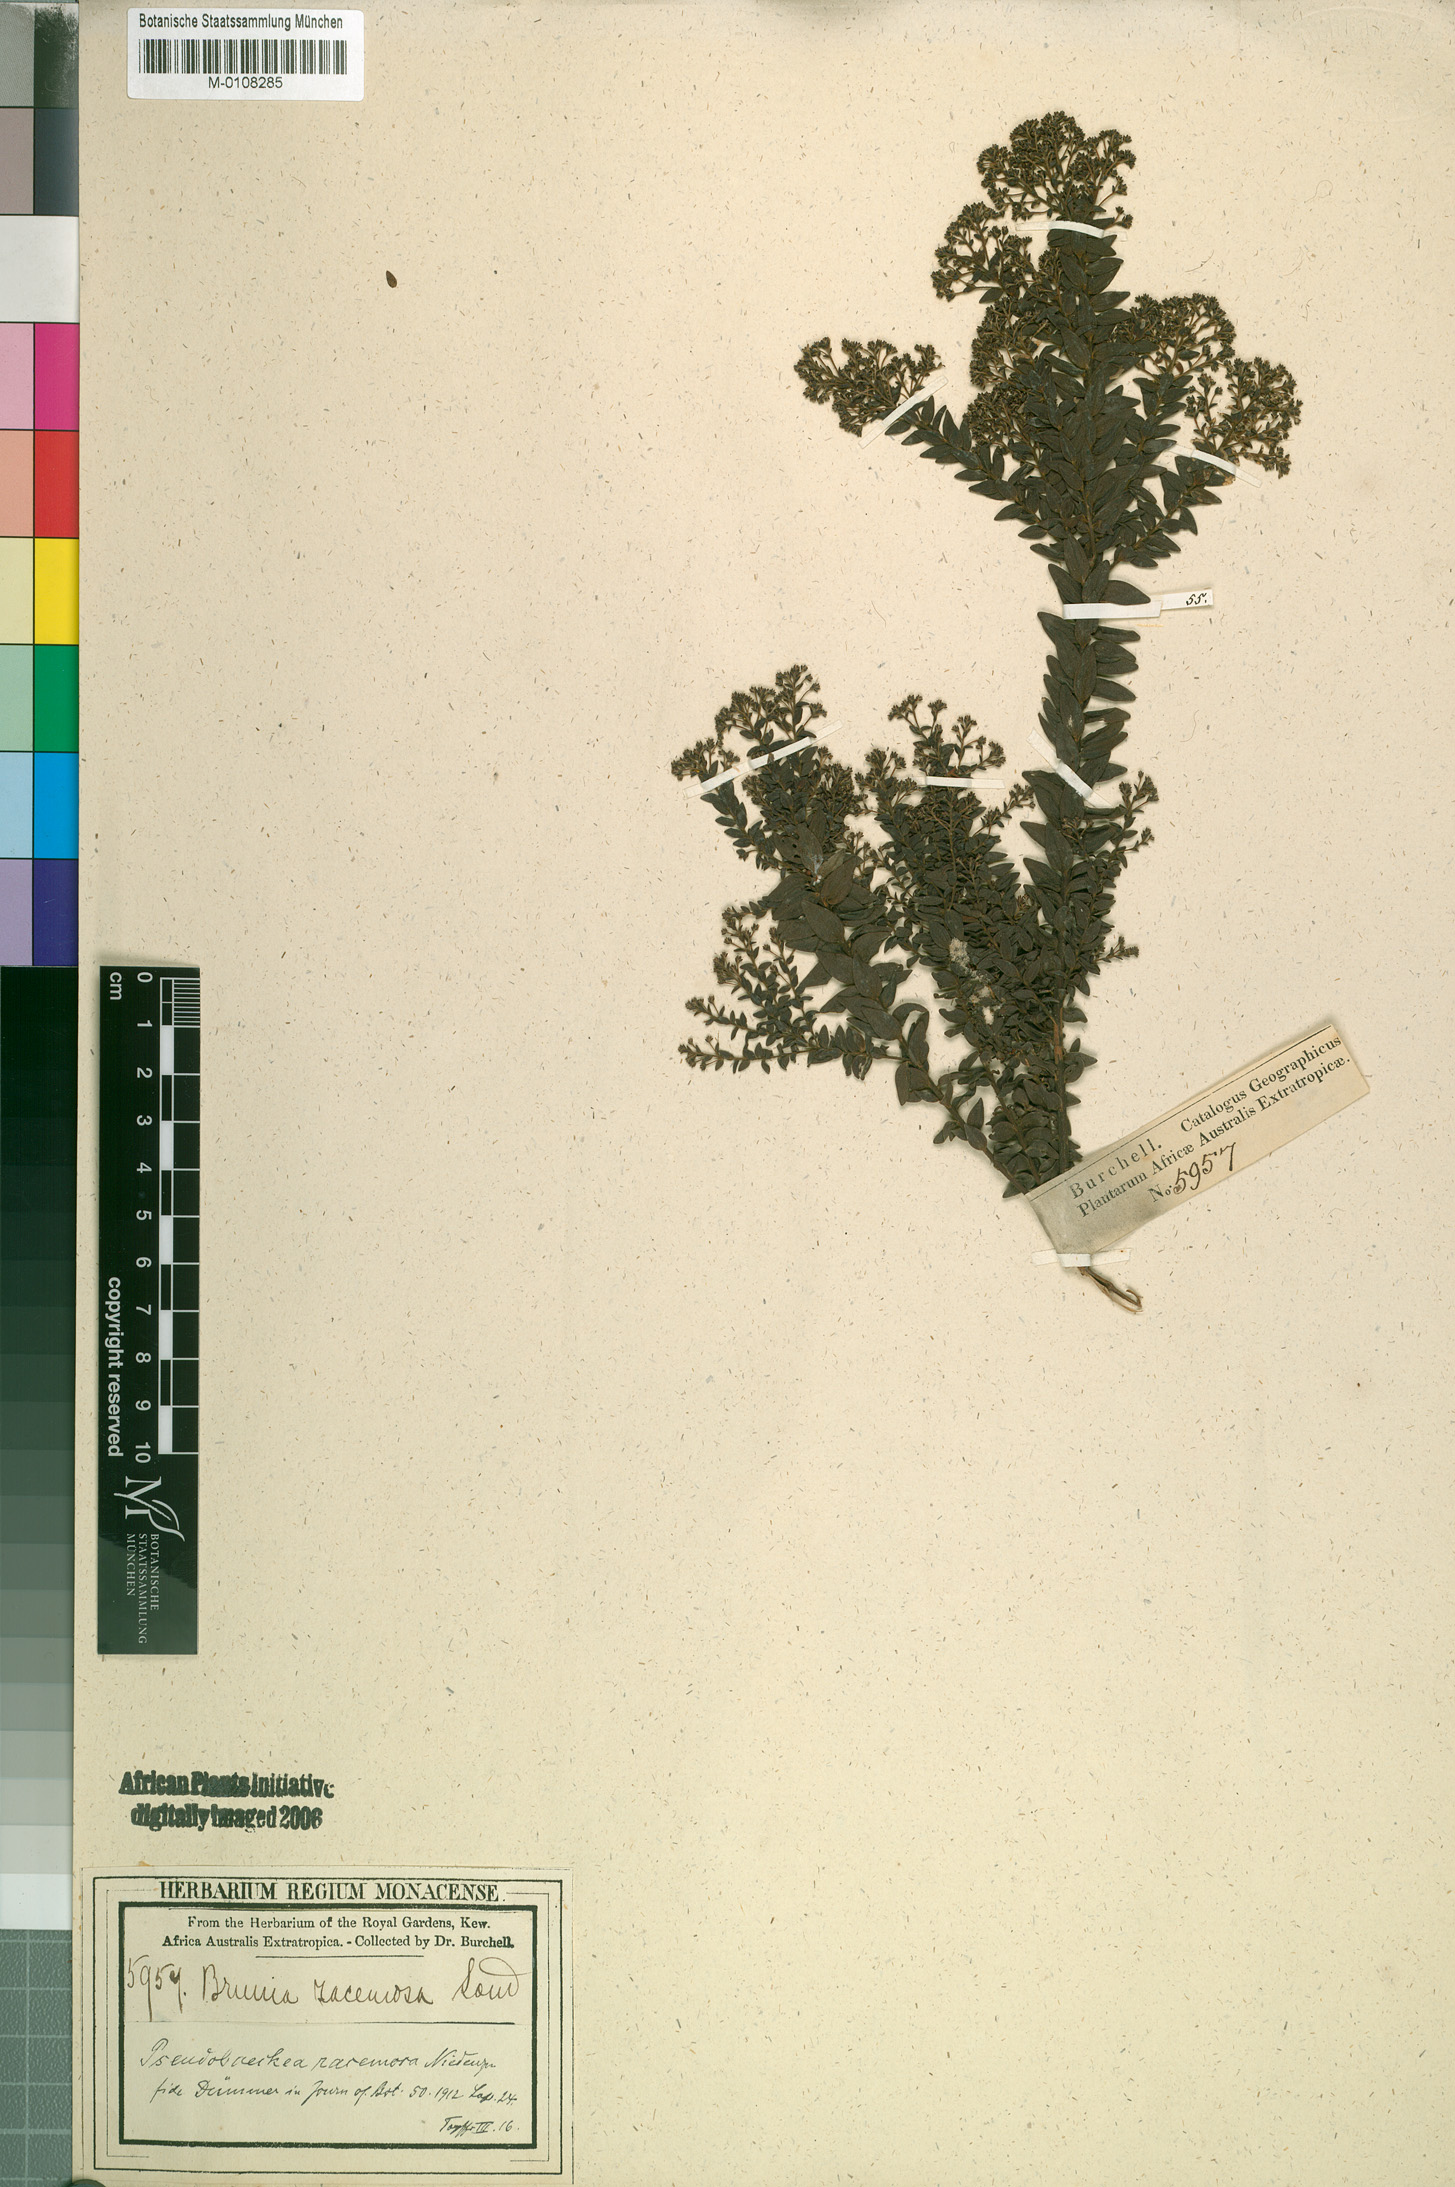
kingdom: Plantae
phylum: Tracheophyta
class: Magnoliopsida
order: Bruniales
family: Bruniaceae
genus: Brunia
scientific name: Brunia cordata
